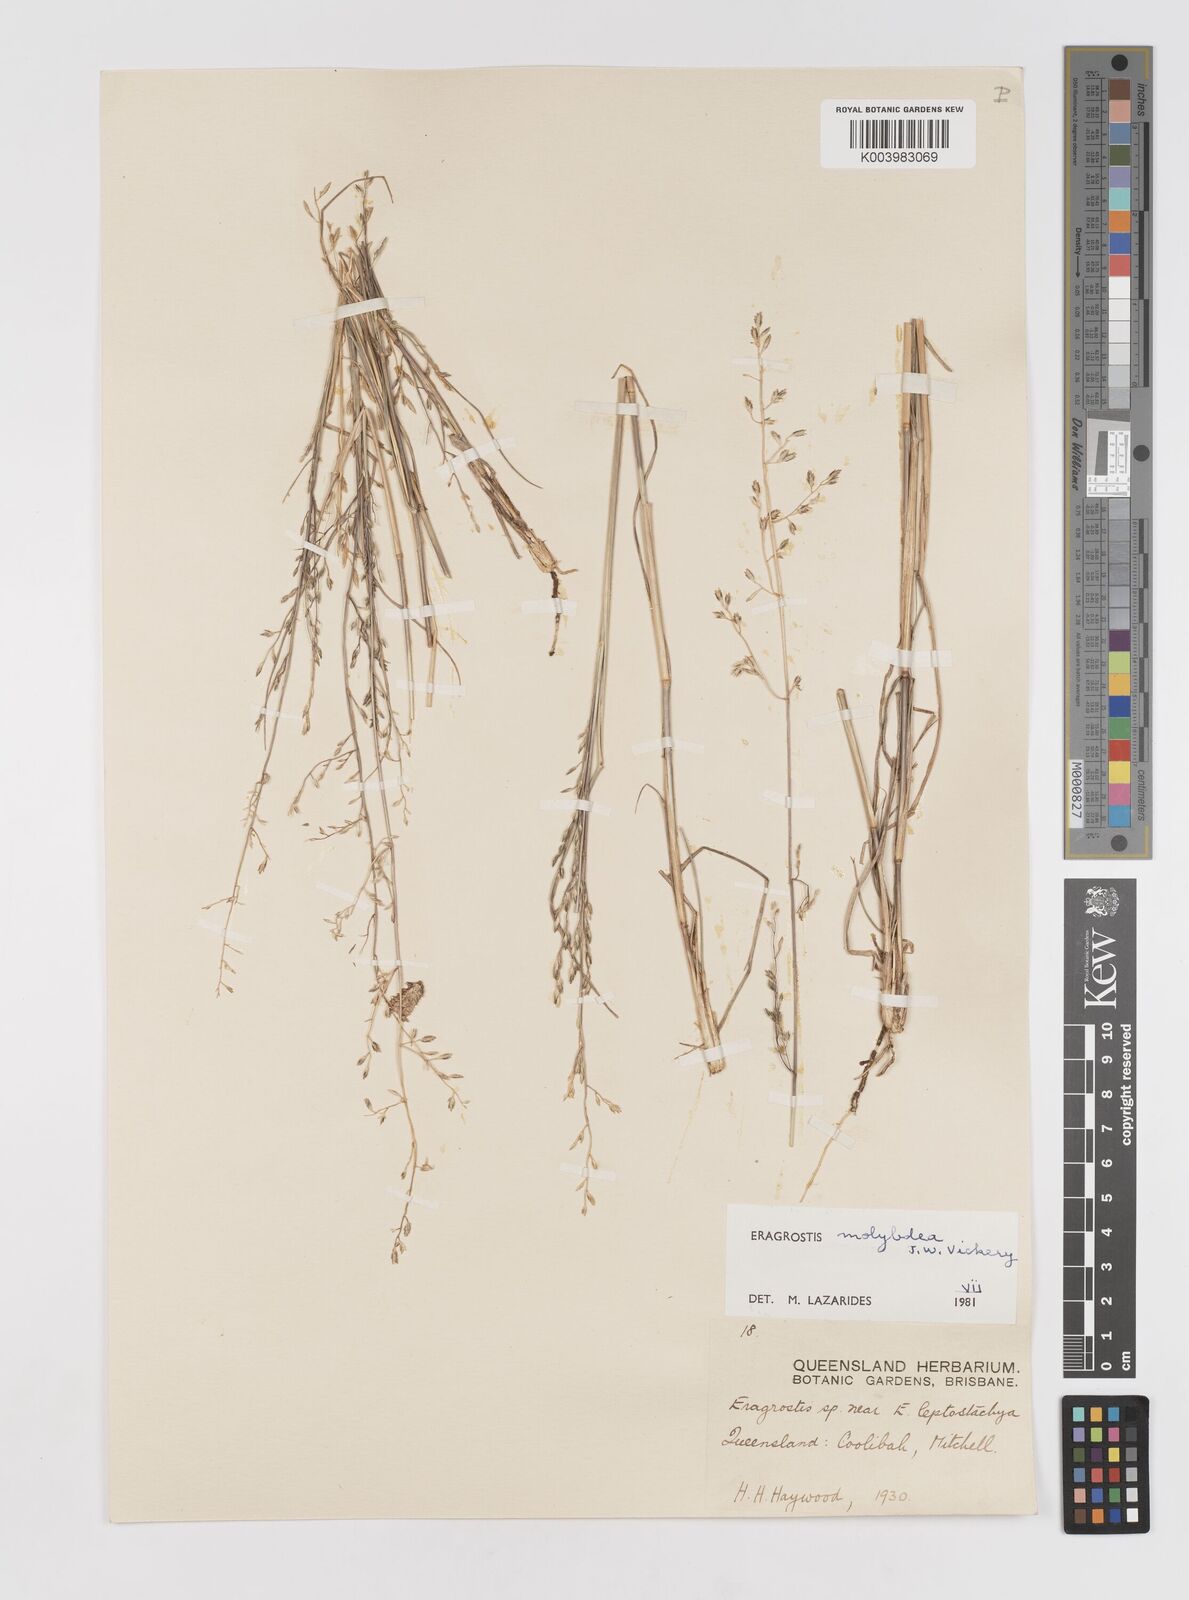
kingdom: Plantae
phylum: Tracheophyta
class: Liliopsida
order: Poales
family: Poaceae
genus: Eragrostis
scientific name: Eragrostis leptostachya
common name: Australian lovegrass
